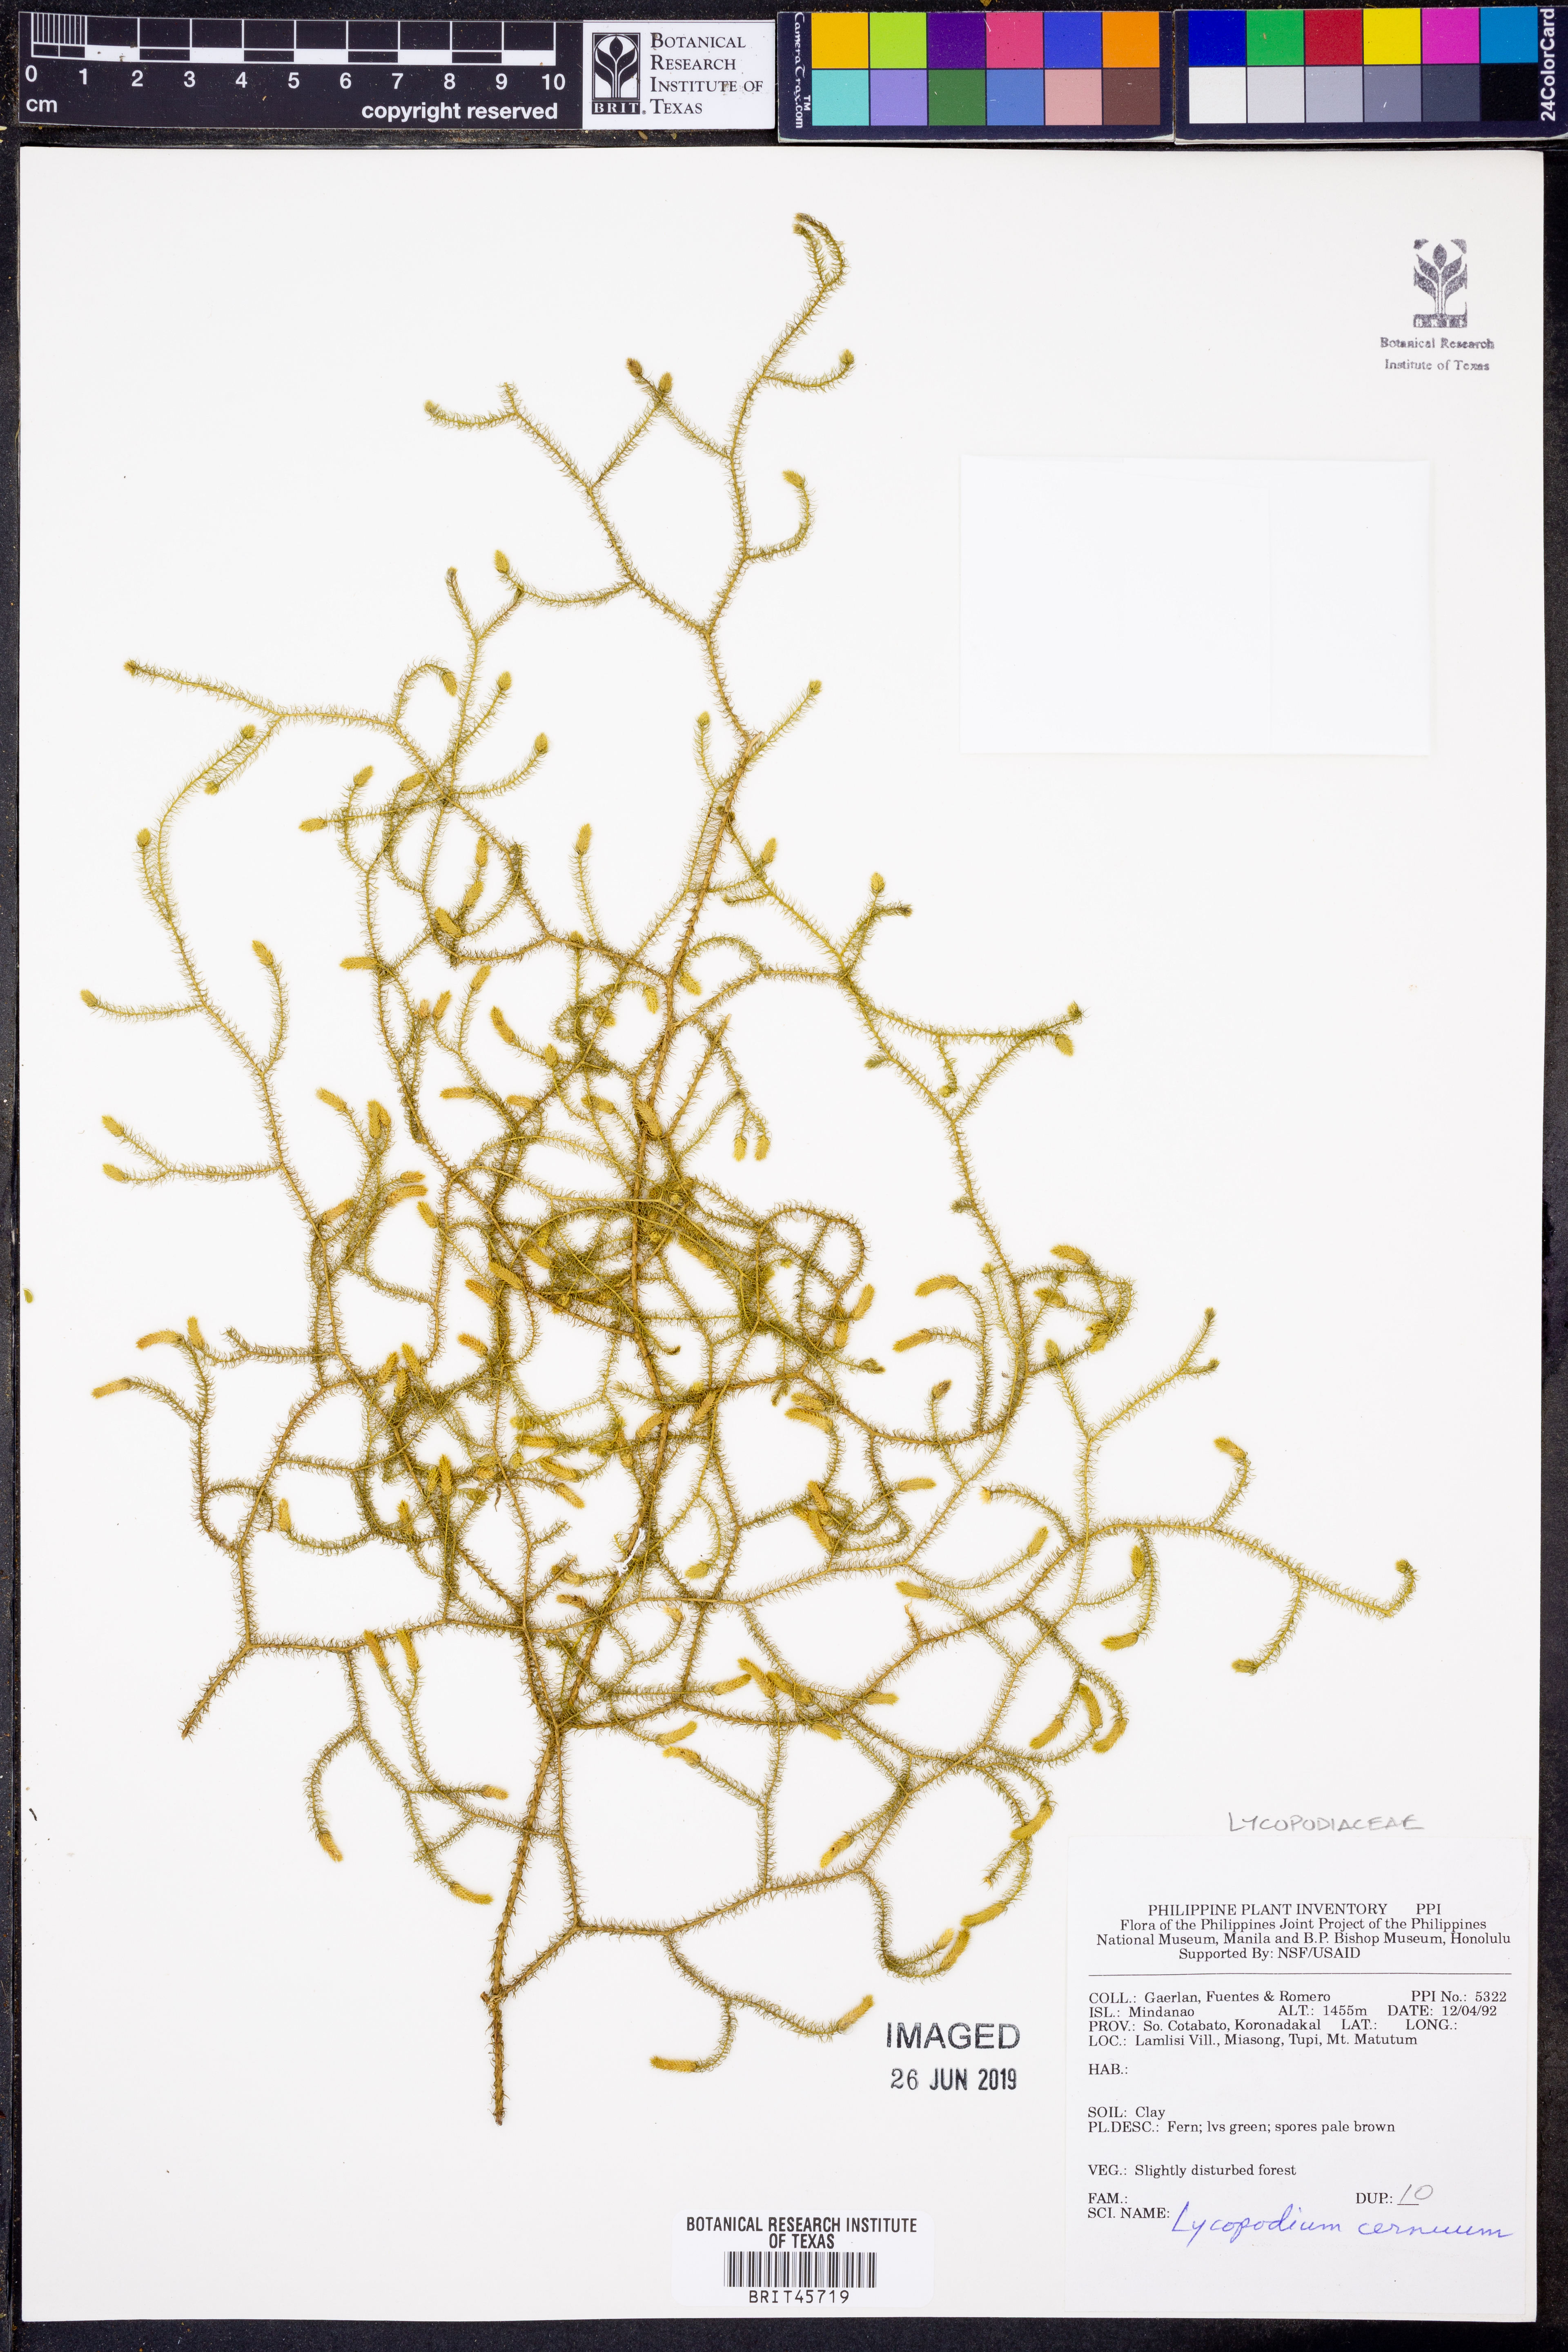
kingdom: Plantae
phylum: Tracheophyta
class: Lycopodiopsida
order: Lycopodiales
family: Lycopodiaceae
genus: Palhinhaea
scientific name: Palhinhaea cernua
